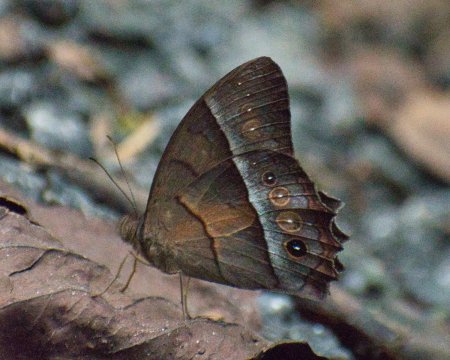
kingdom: Animalia
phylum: Arthropoda
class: Insecta
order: Lepidoptera
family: Nymphalidae
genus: Taygetis
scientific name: Taygetis andromeda
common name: Uzza Satyr
